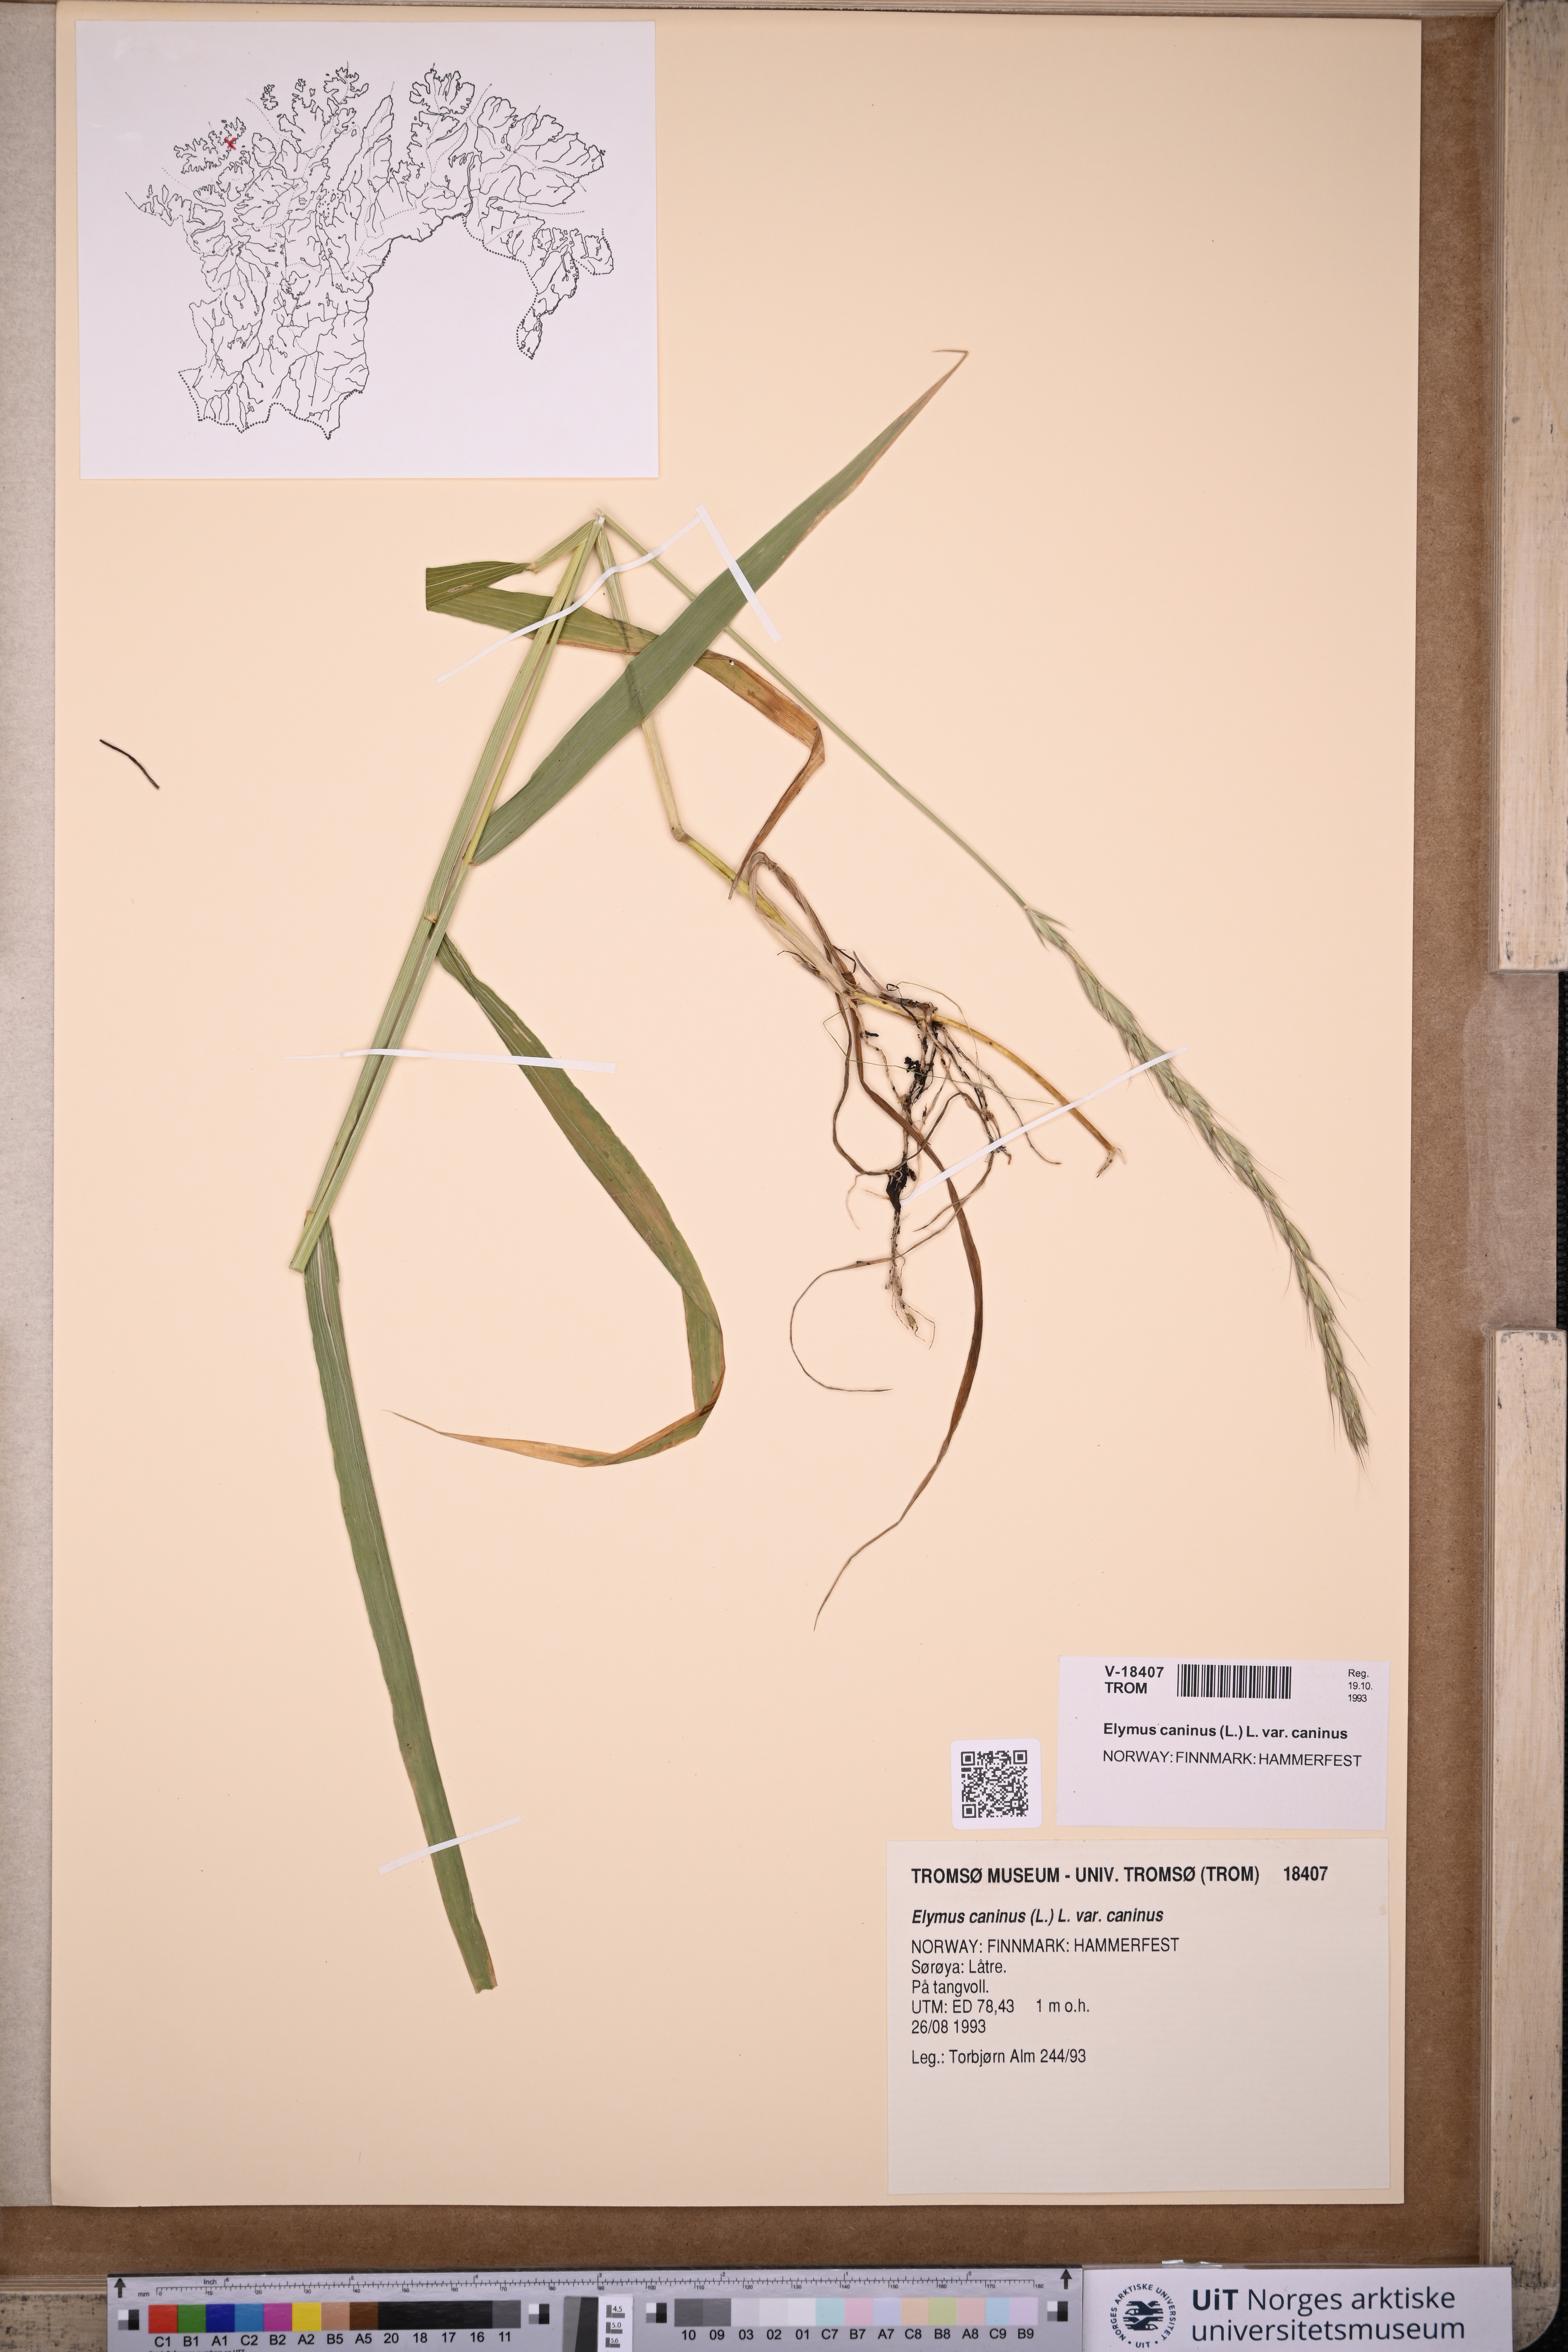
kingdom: Plantae
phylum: Tracheophyta
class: Liliopsida
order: Poales
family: Poaceae
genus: Elymus
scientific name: Elymus caninus
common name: Bearded couch
